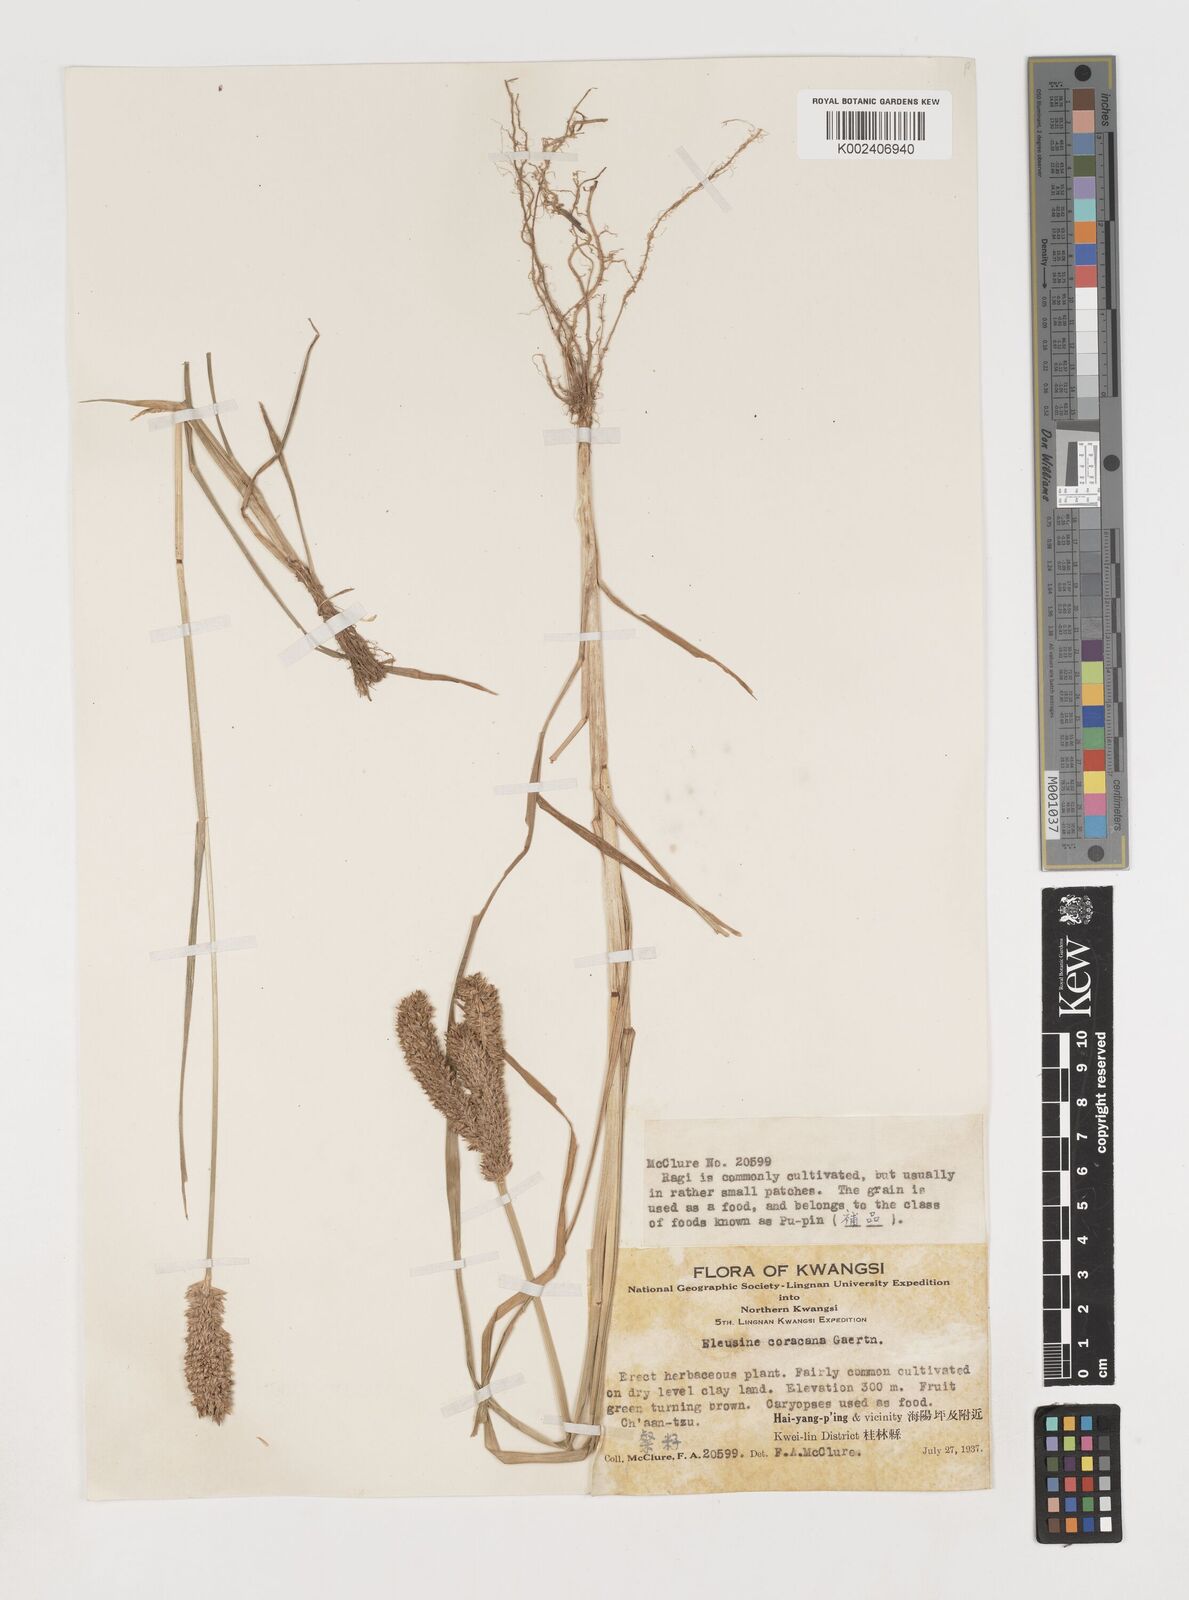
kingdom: Plantae
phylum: Tracheophyta
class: Liliopsida
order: Poales
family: Poaceae
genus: Eleusine
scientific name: Eleusine coracana
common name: Finger millet
